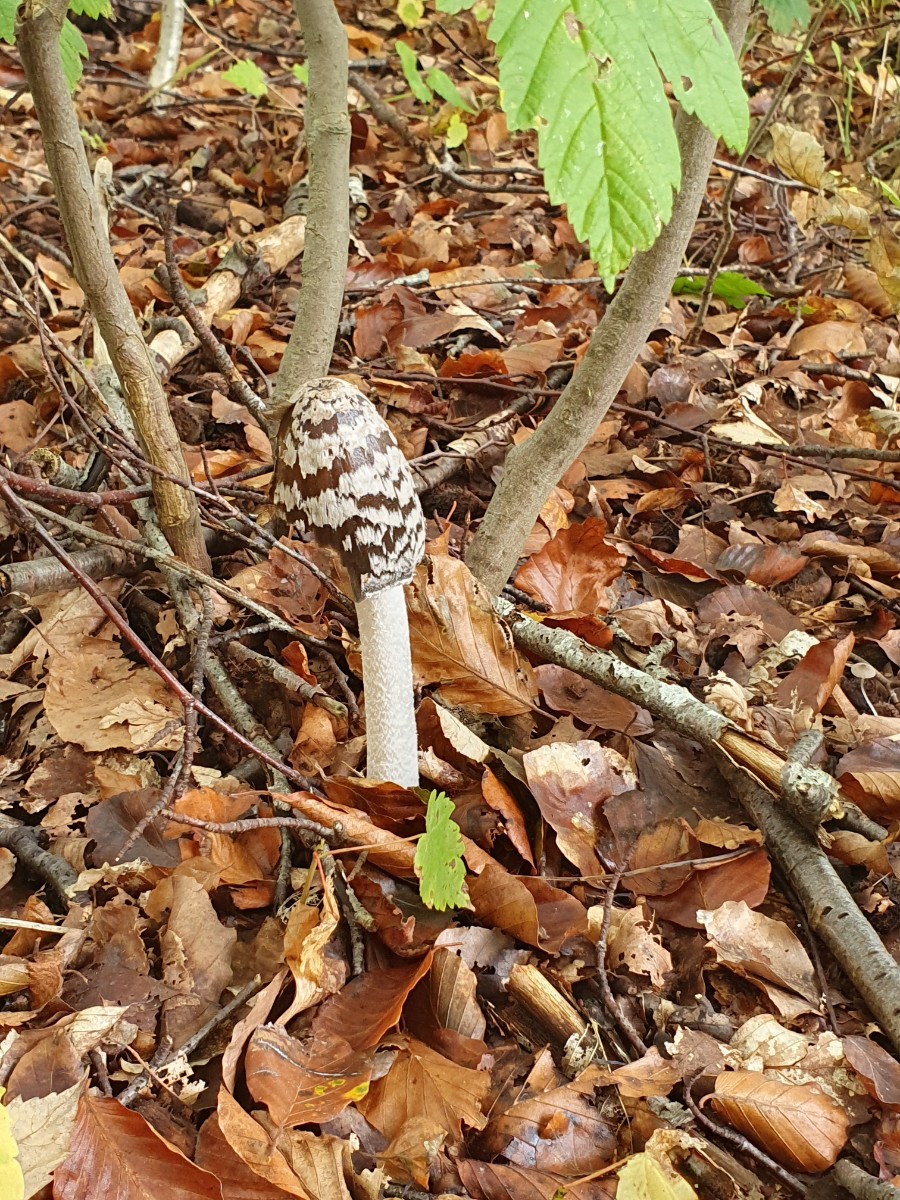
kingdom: Fungi
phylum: Basidiomycota
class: Agaricomycetes
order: Agaricales
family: Psathyrellaceae
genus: Coprinopsis
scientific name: Coprinopsis picacea
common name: skade-blækhat
